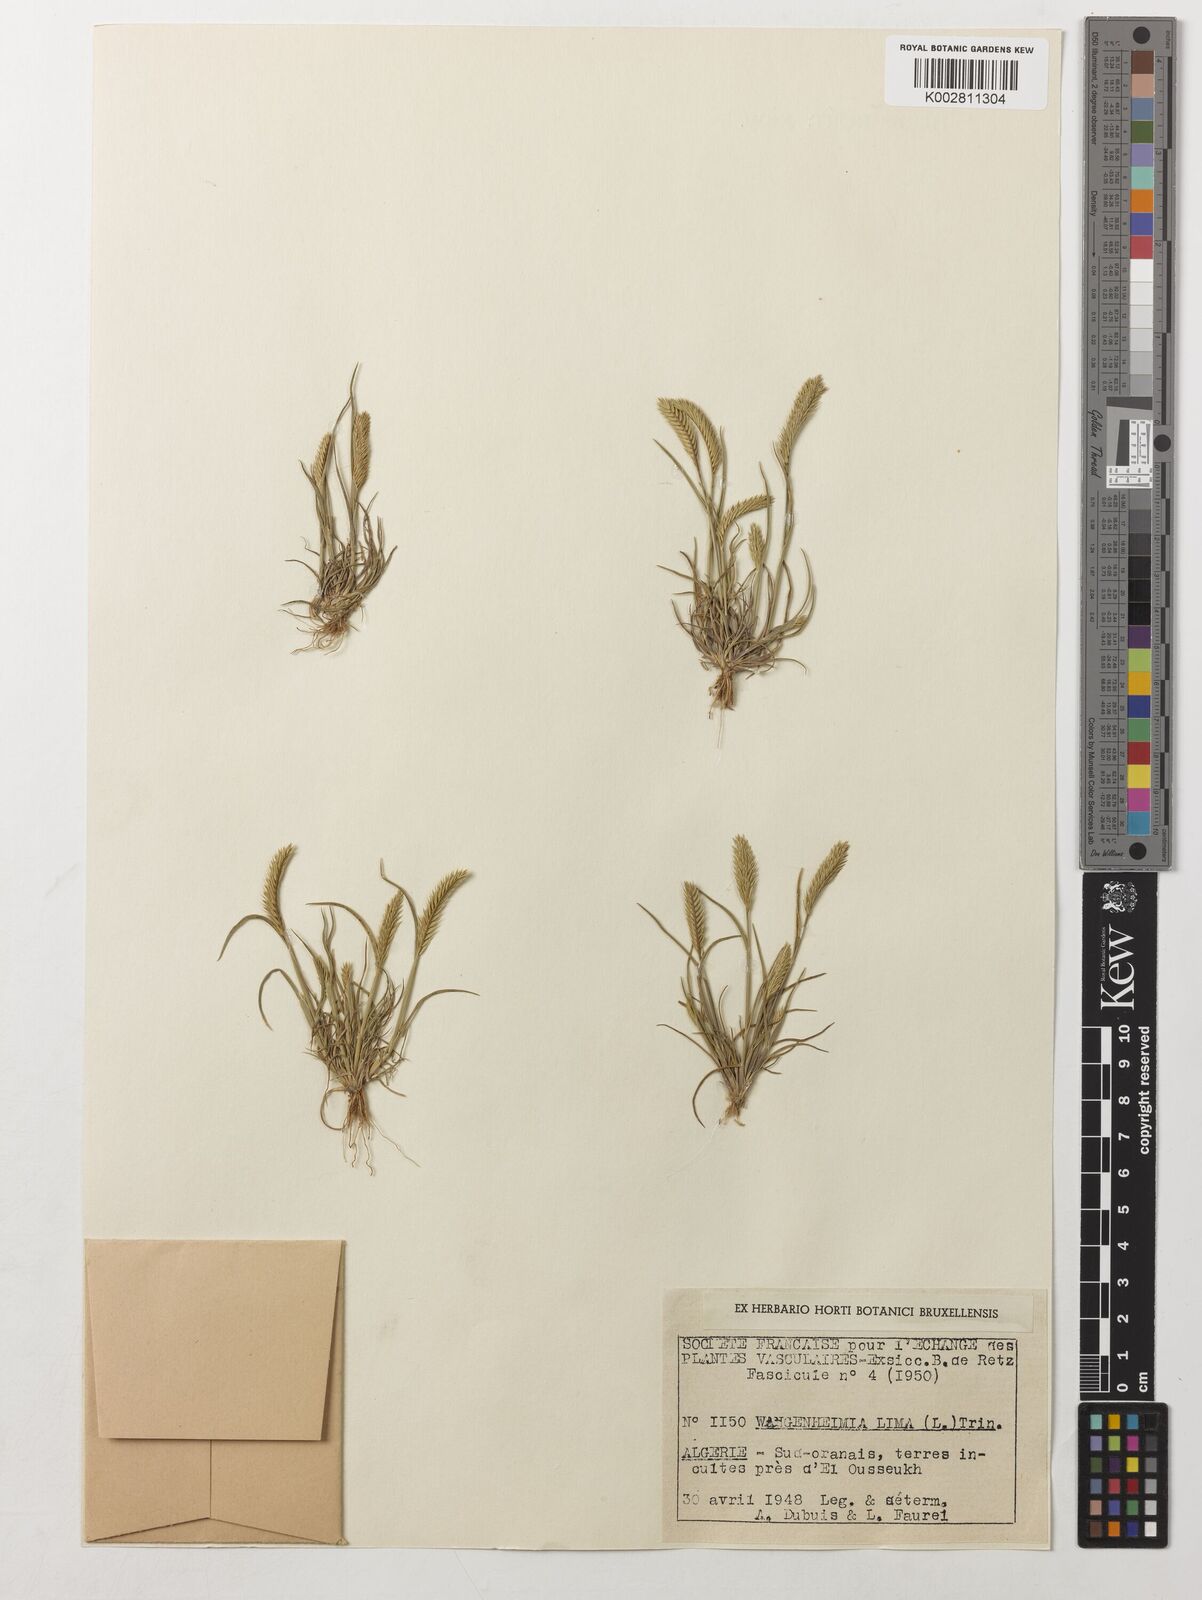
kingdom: Plantae
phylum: Tracheophyta
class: Liliopsida
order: Poales
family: Poaceae
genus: Wangenheimia
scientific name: Wangenheimia lima
